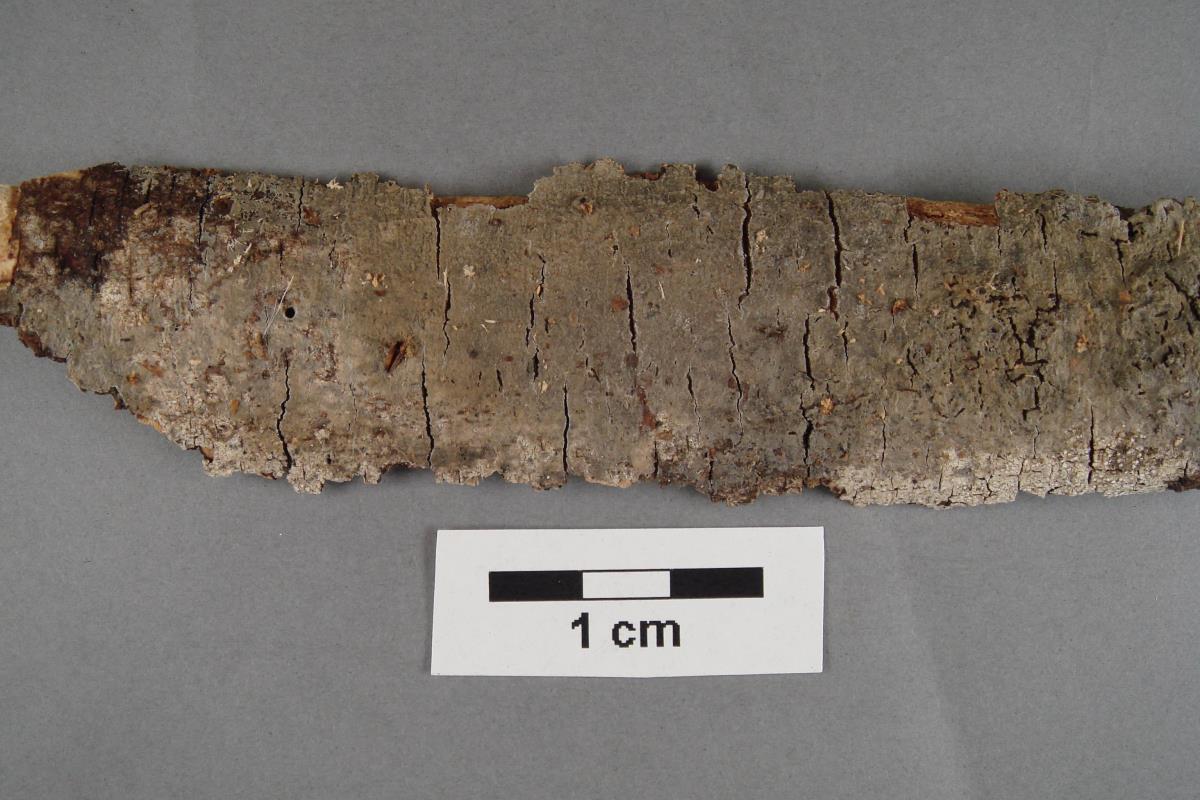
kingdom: Fungi
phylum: Basidiomycota
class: Agaricomycetes
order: Trechisporales
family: Sistotremataceae
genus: Trechispora
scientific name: Trechispora stevensonii
